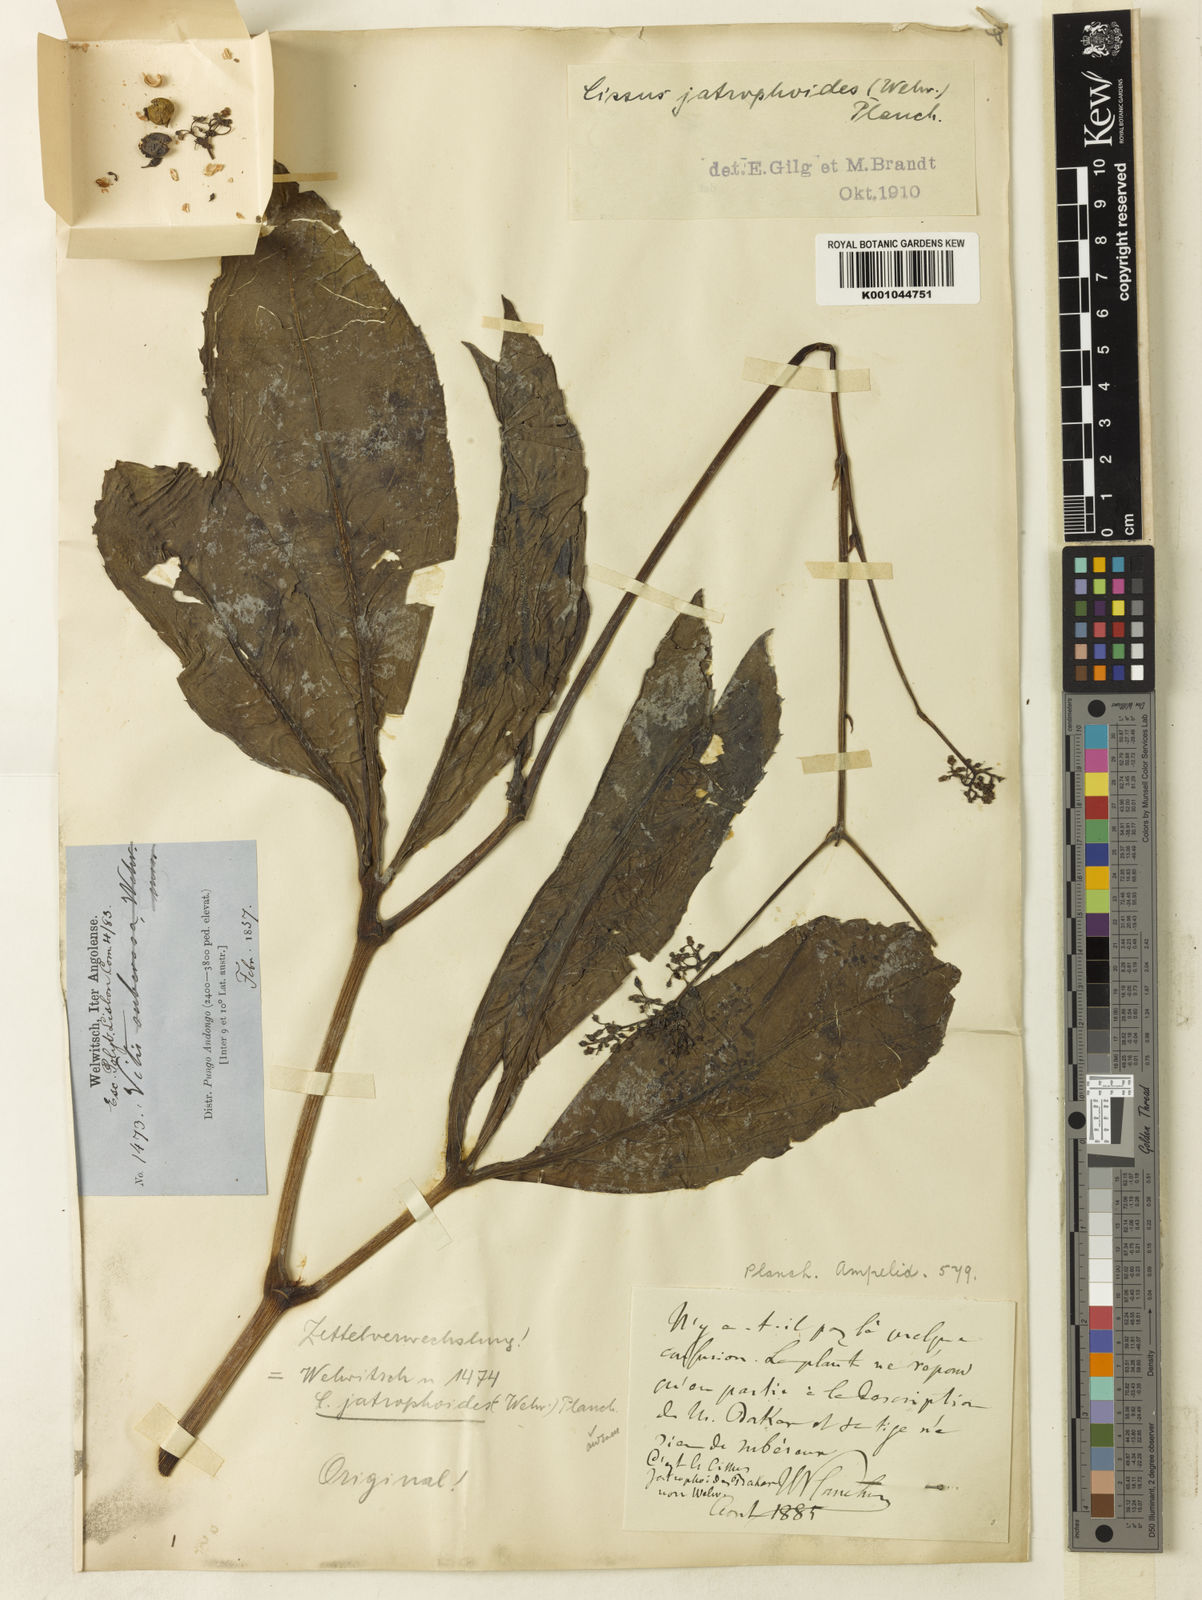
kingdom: Plantae
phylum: Tracheophyta
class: Magnoliopsida
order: Vitales
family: Vitaceae
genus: Cyphostemma
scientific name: Cyphostemma junceum
